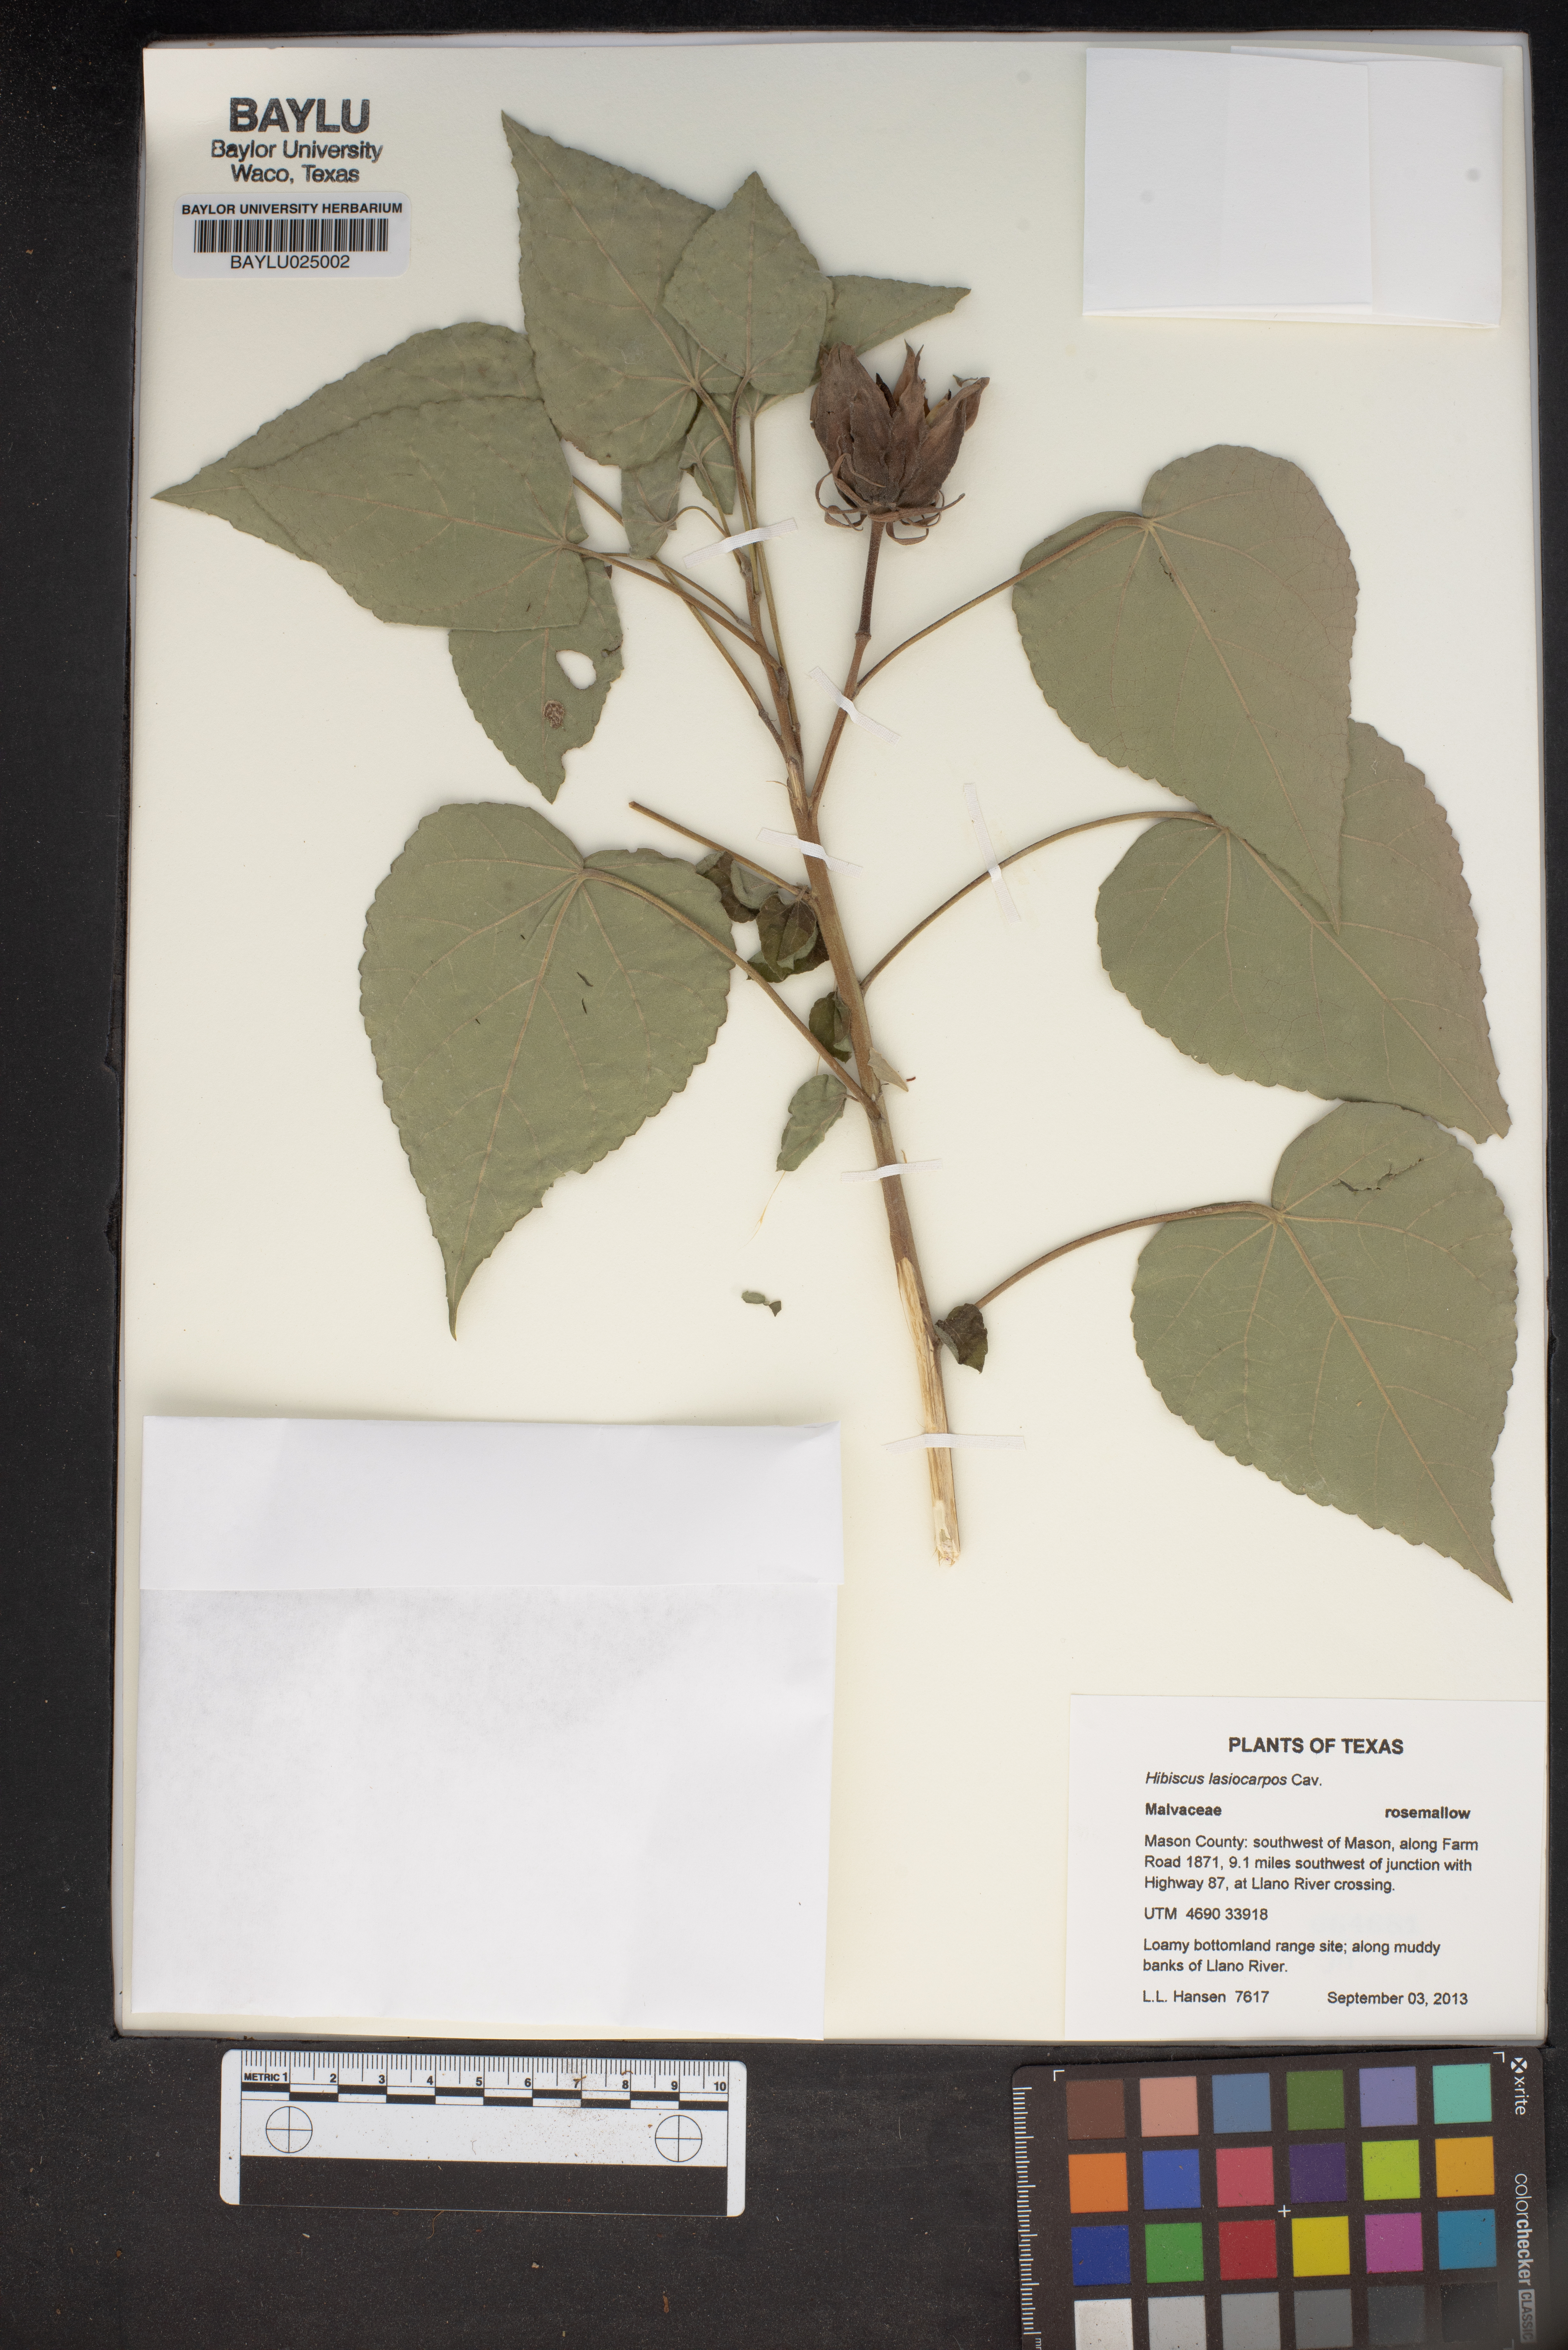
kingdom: Plantae
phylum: Tracheophyta
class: Magnoliopsida
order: Malvales
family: Malvaceae
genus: Hibiscus
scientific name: Hibiscus moscheutos
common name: Common rose-mallow
